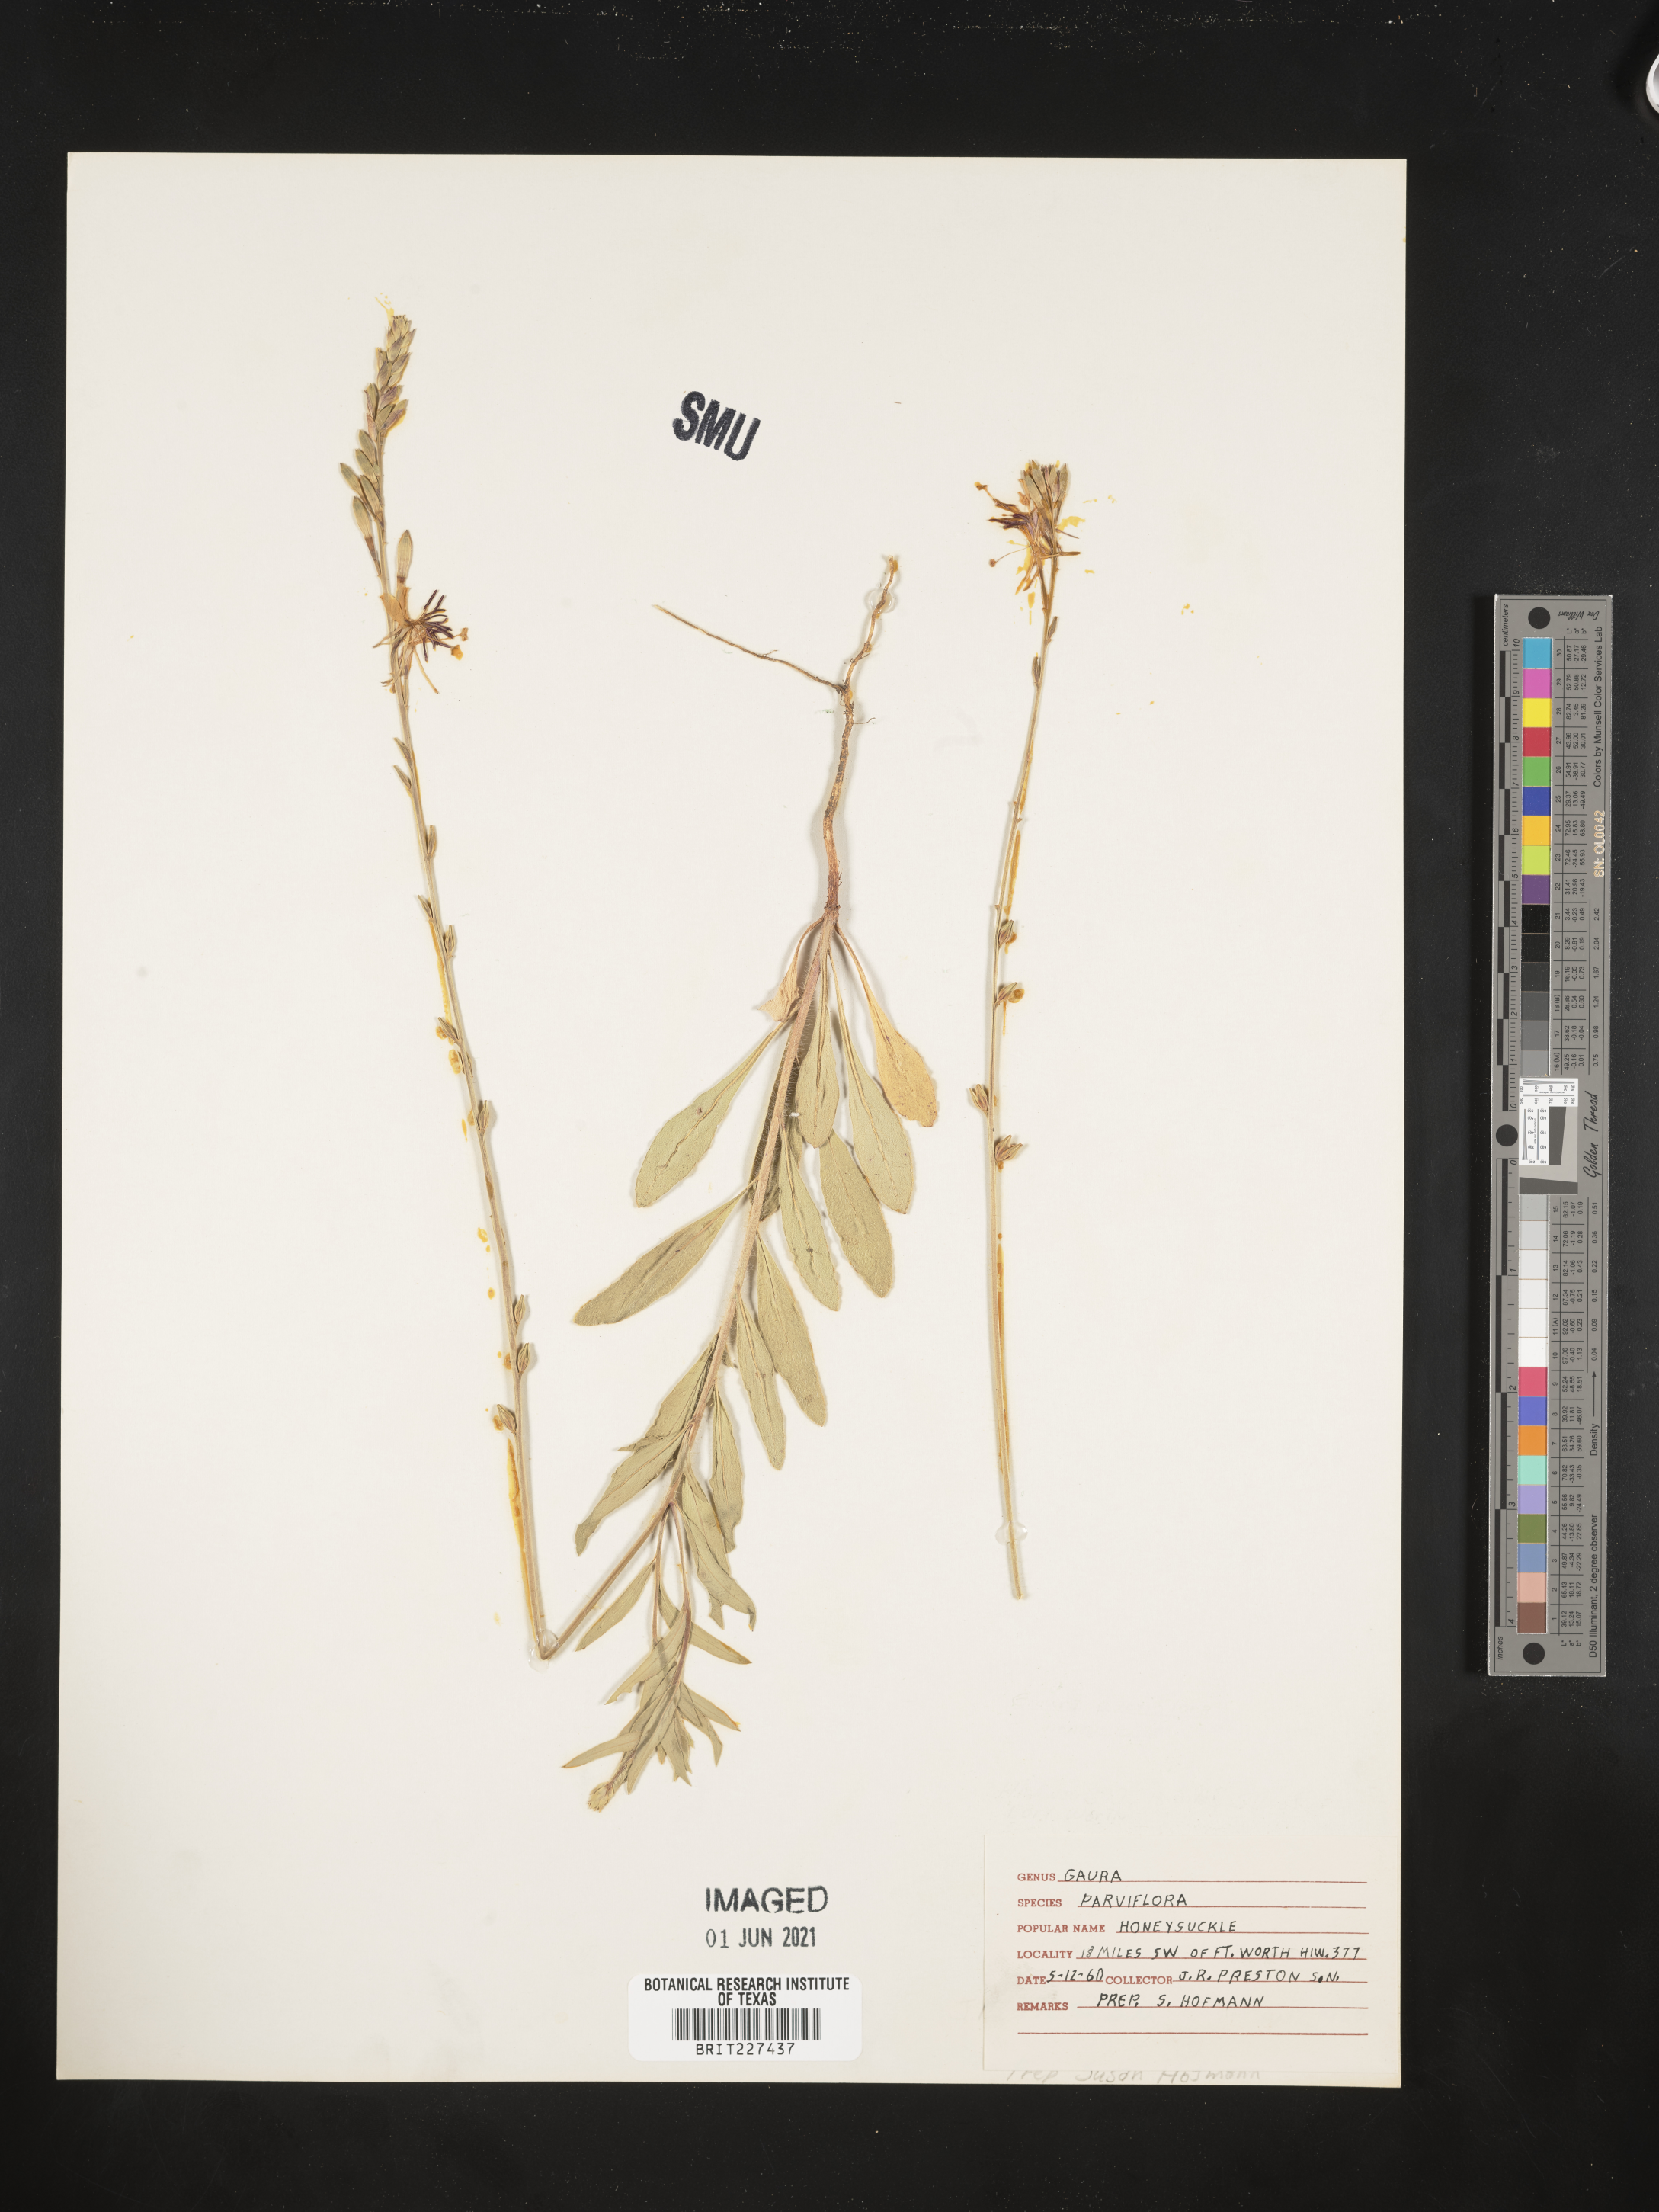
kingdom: Plantae
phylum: Tracheophyta
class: Magnoliopsida
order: Myrtales
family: Onagraceae
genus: Oenothera
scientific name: Oenothera curtiflora
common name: Velvetweed
